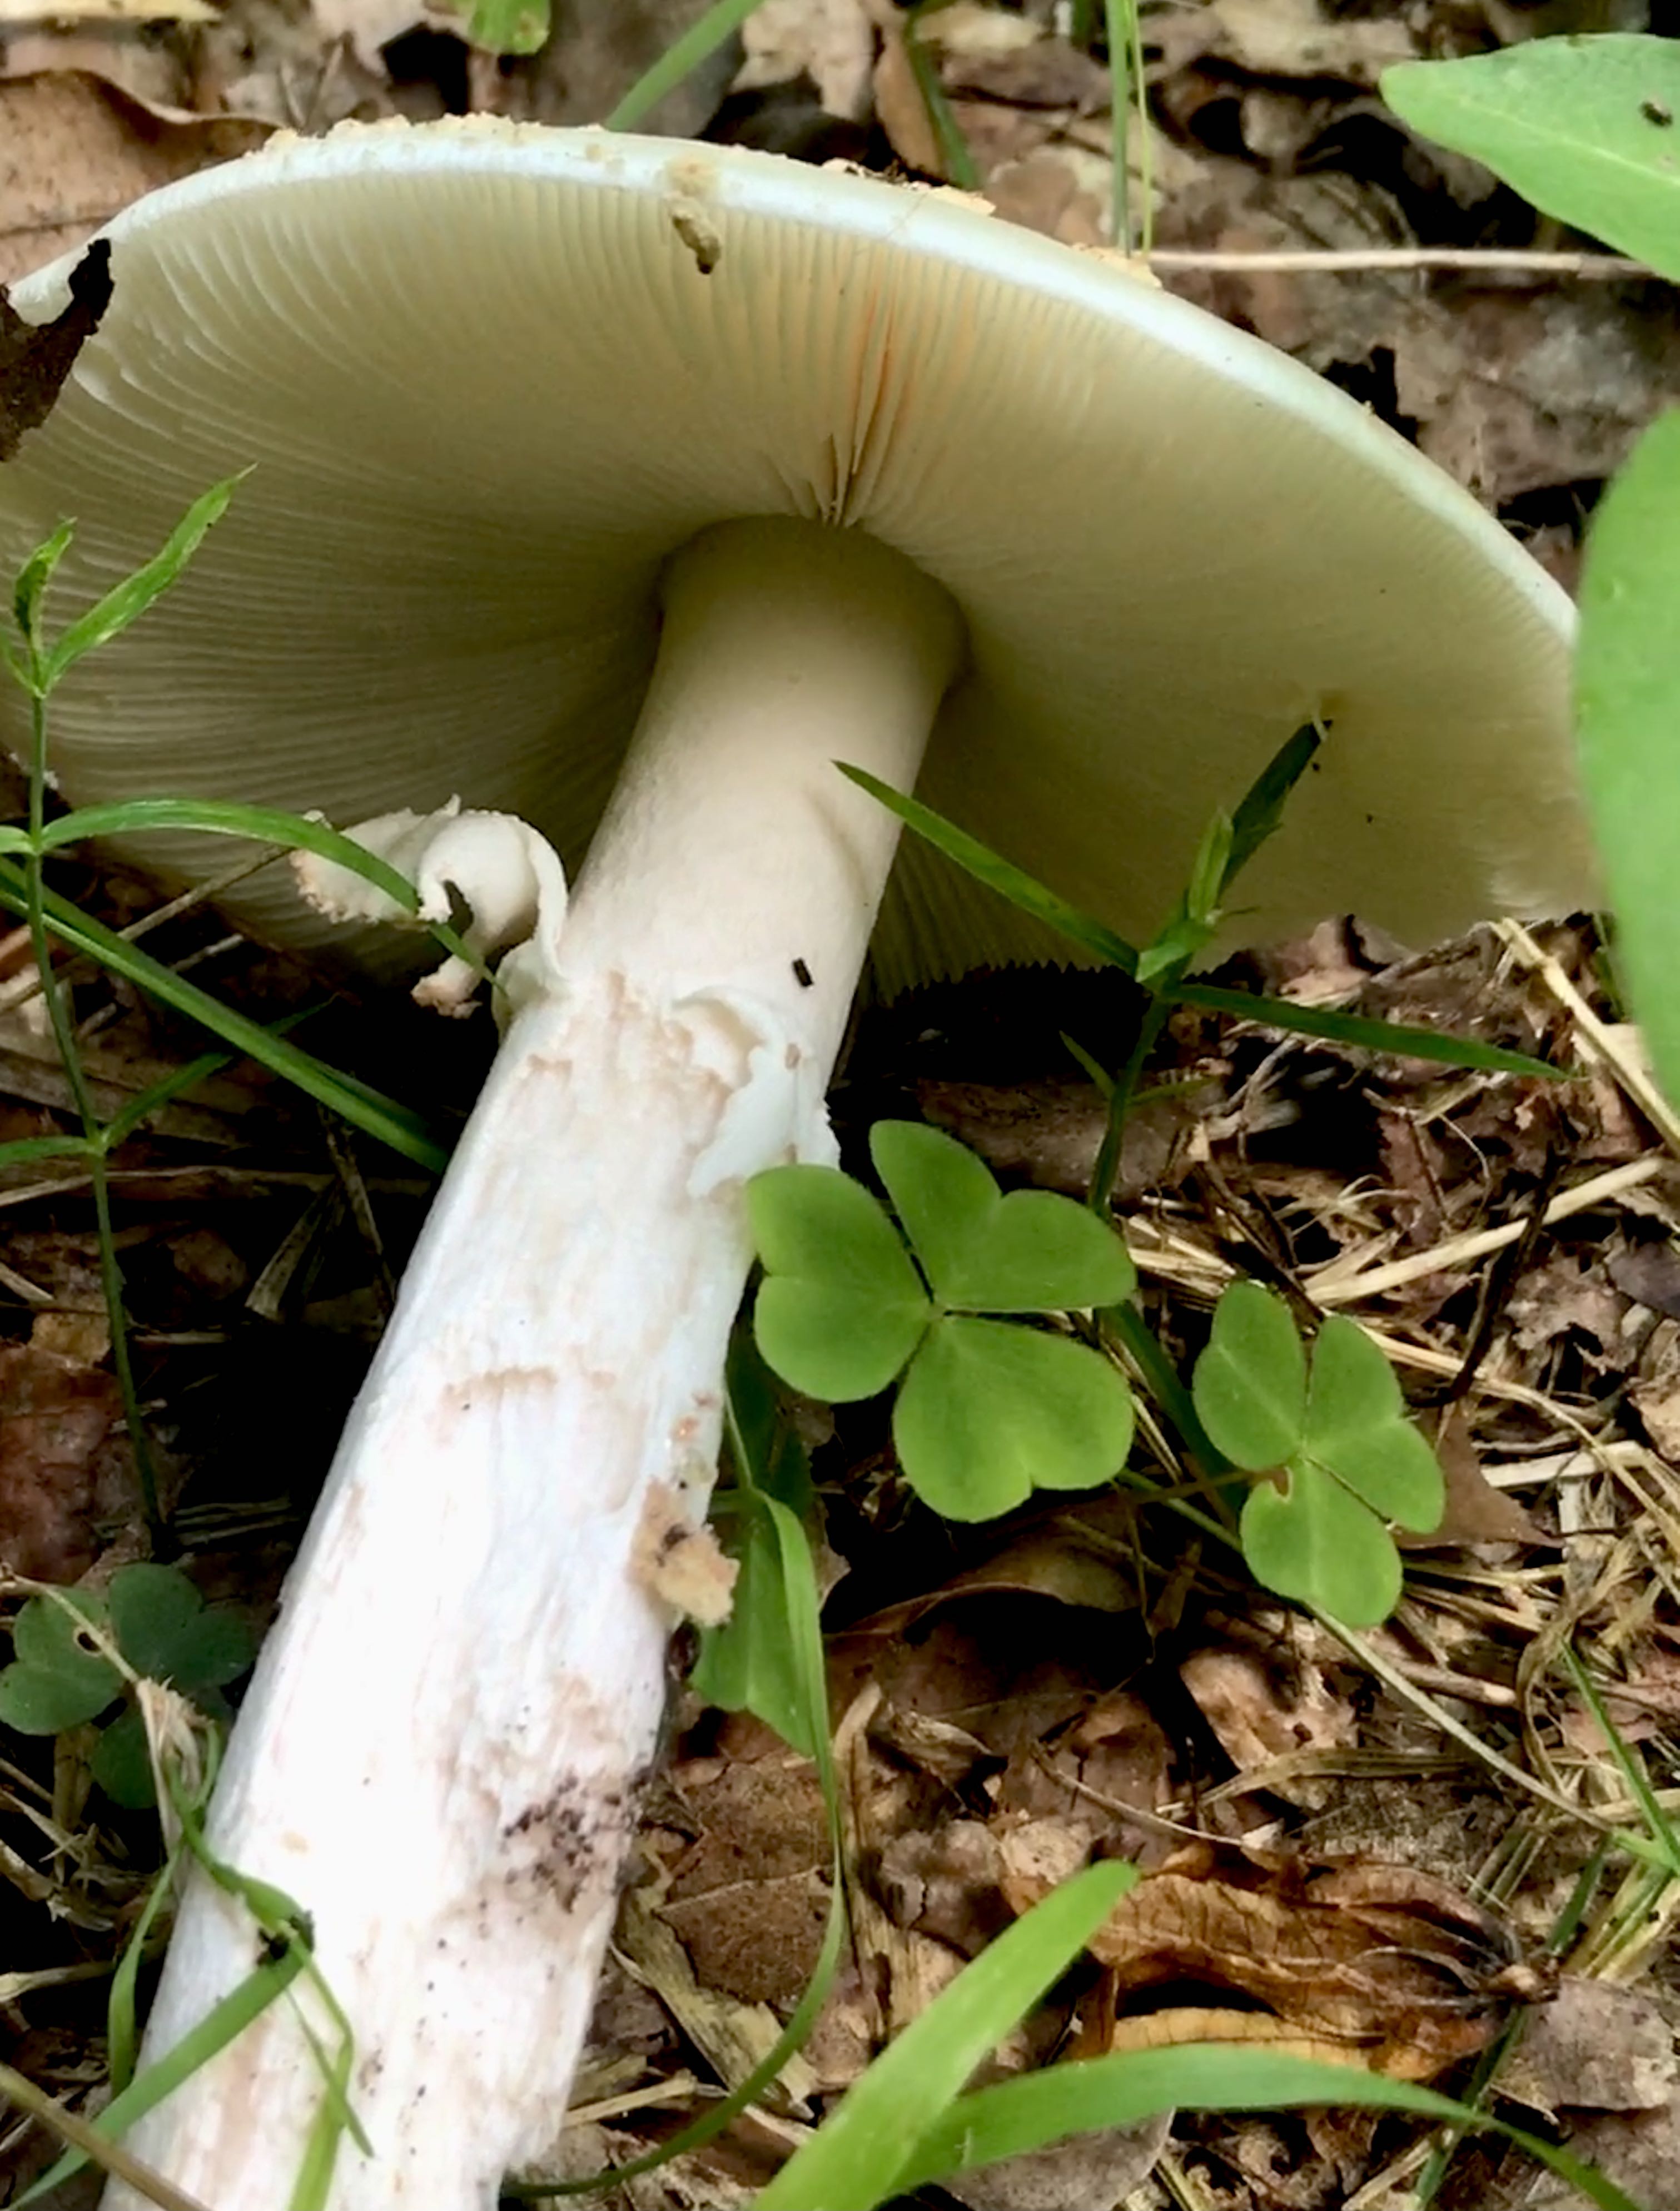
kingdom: Fungi
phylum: Basidiomycota
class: Agaricomycetes
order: Agaricales
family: Amanitaceae
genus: Amanita
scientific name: Amanita citrina
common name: kugleknoldet fluesvamp
